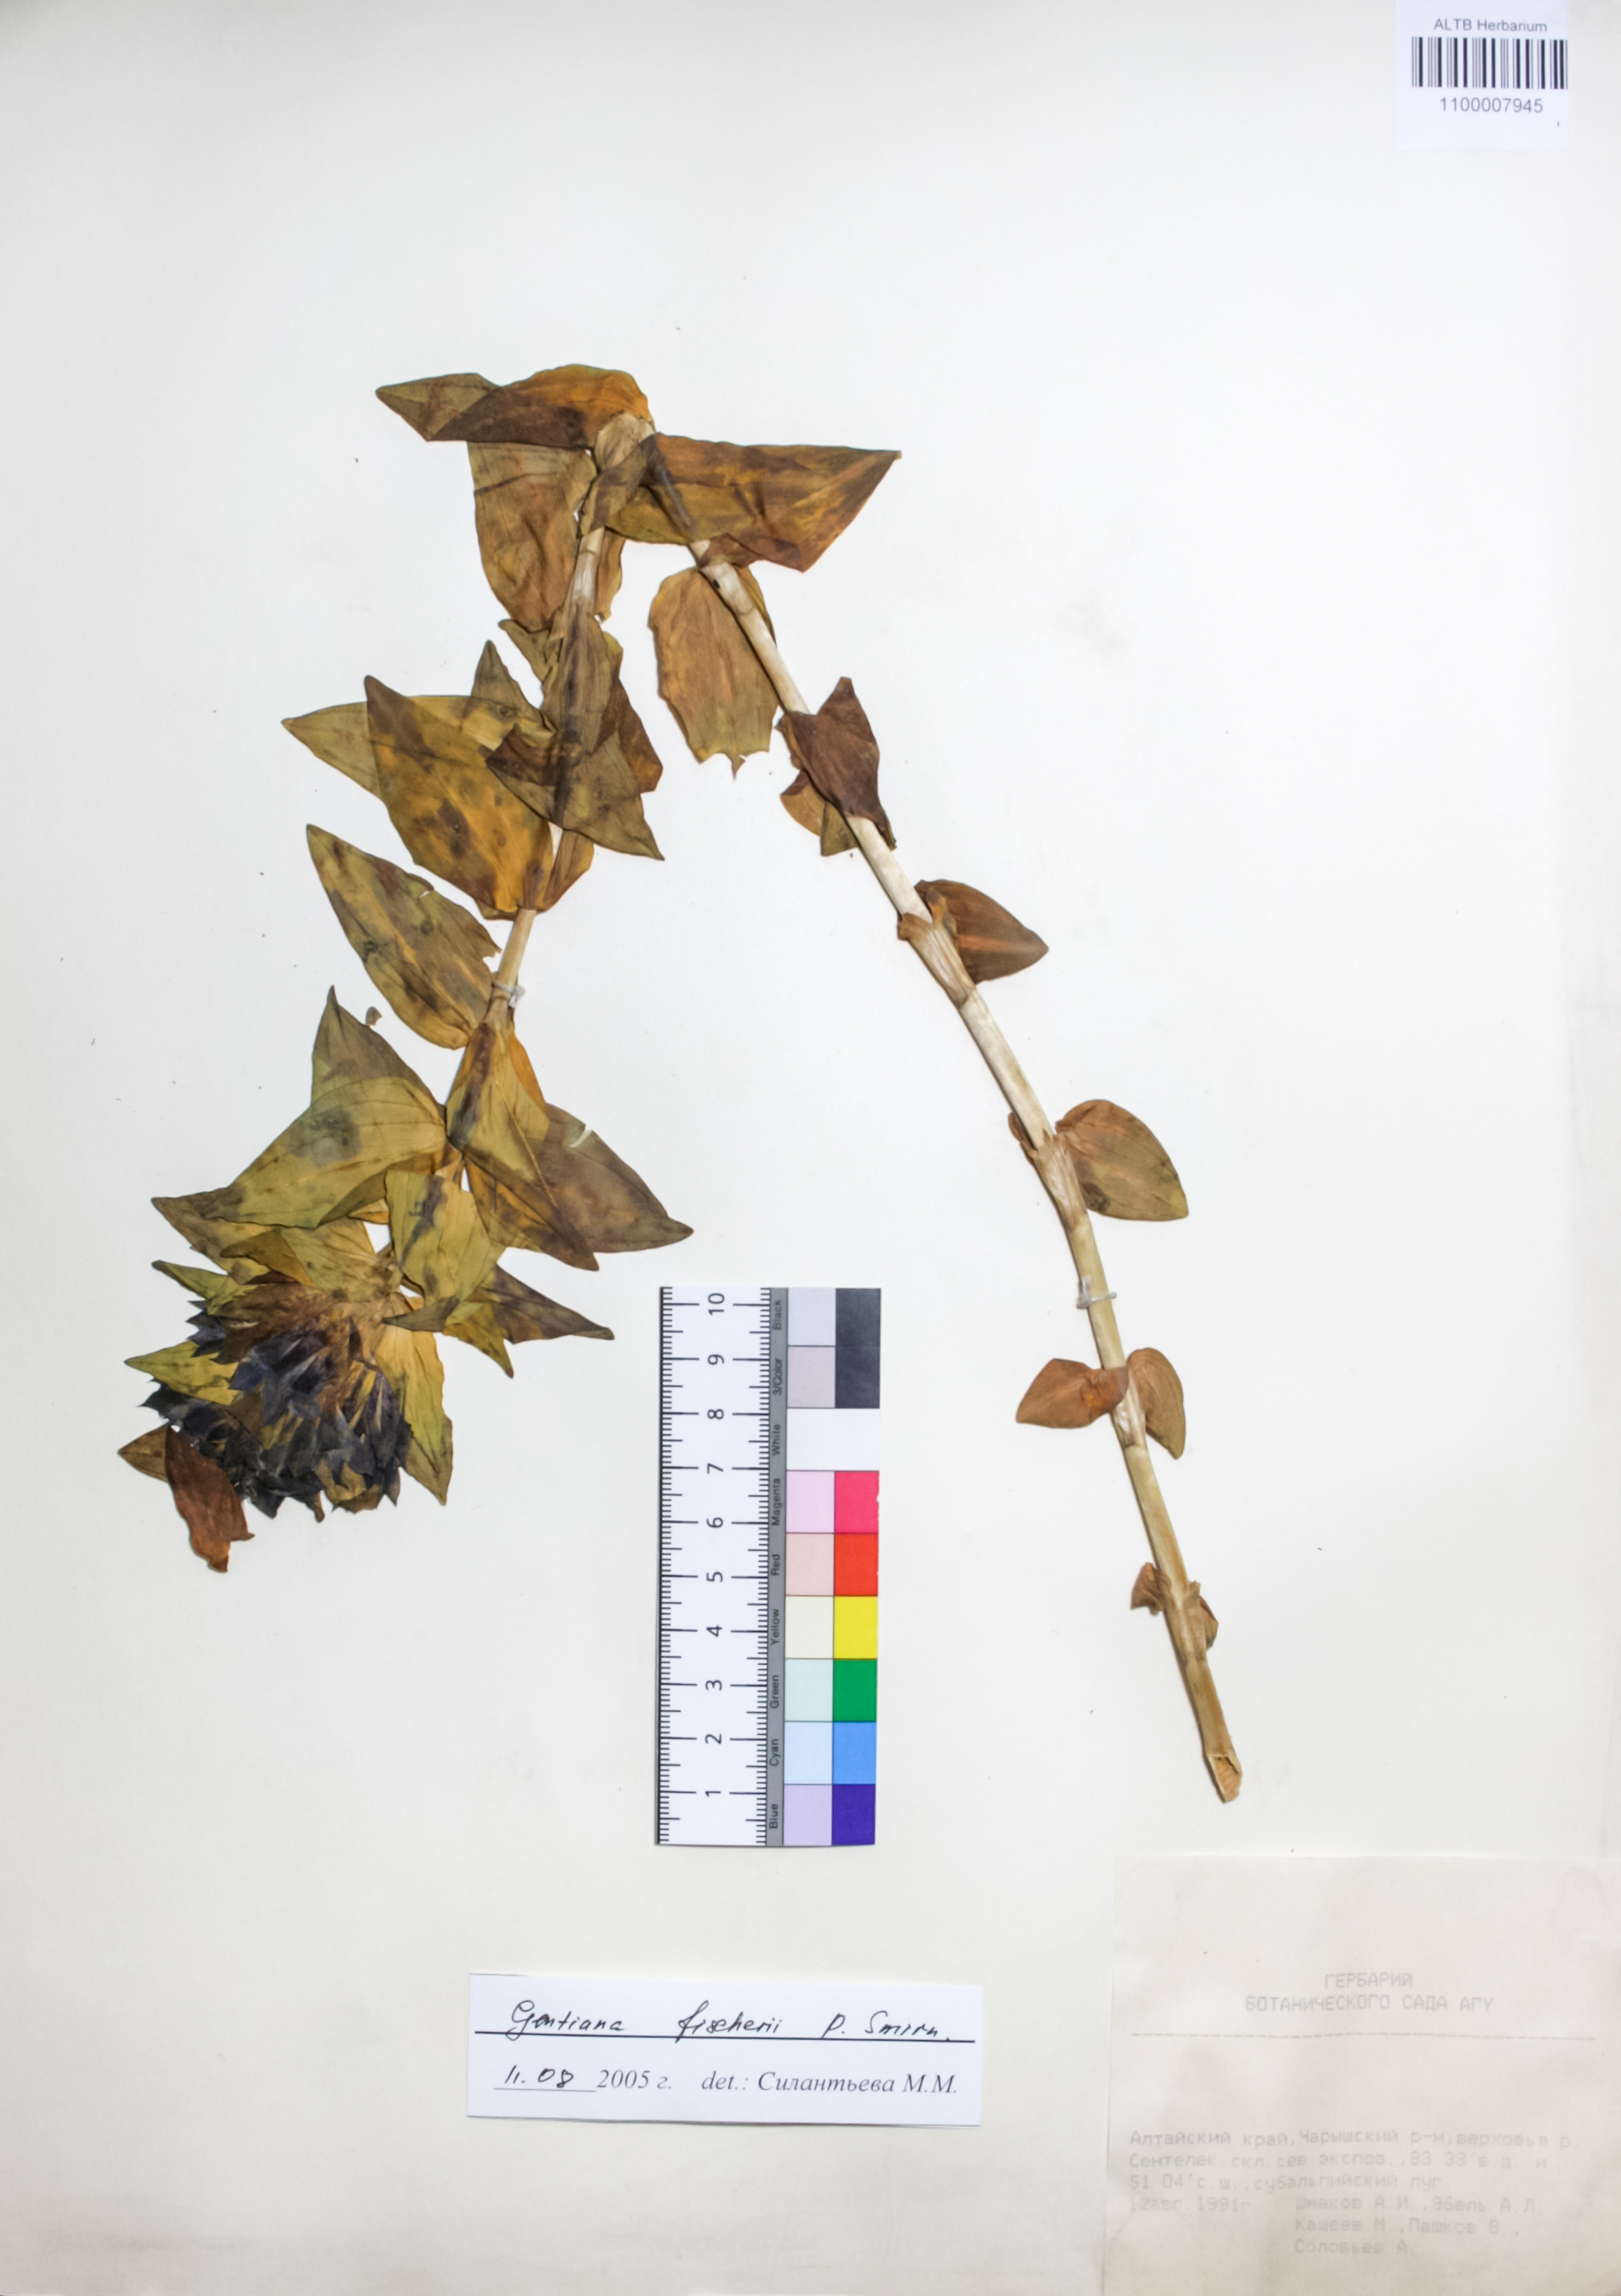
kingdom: Plantae
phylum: Tracheophyta
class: Magnoliopsida
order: Gentianales
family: Gentianaceae
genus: Gentiana
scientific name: Gentiana dschungarica
